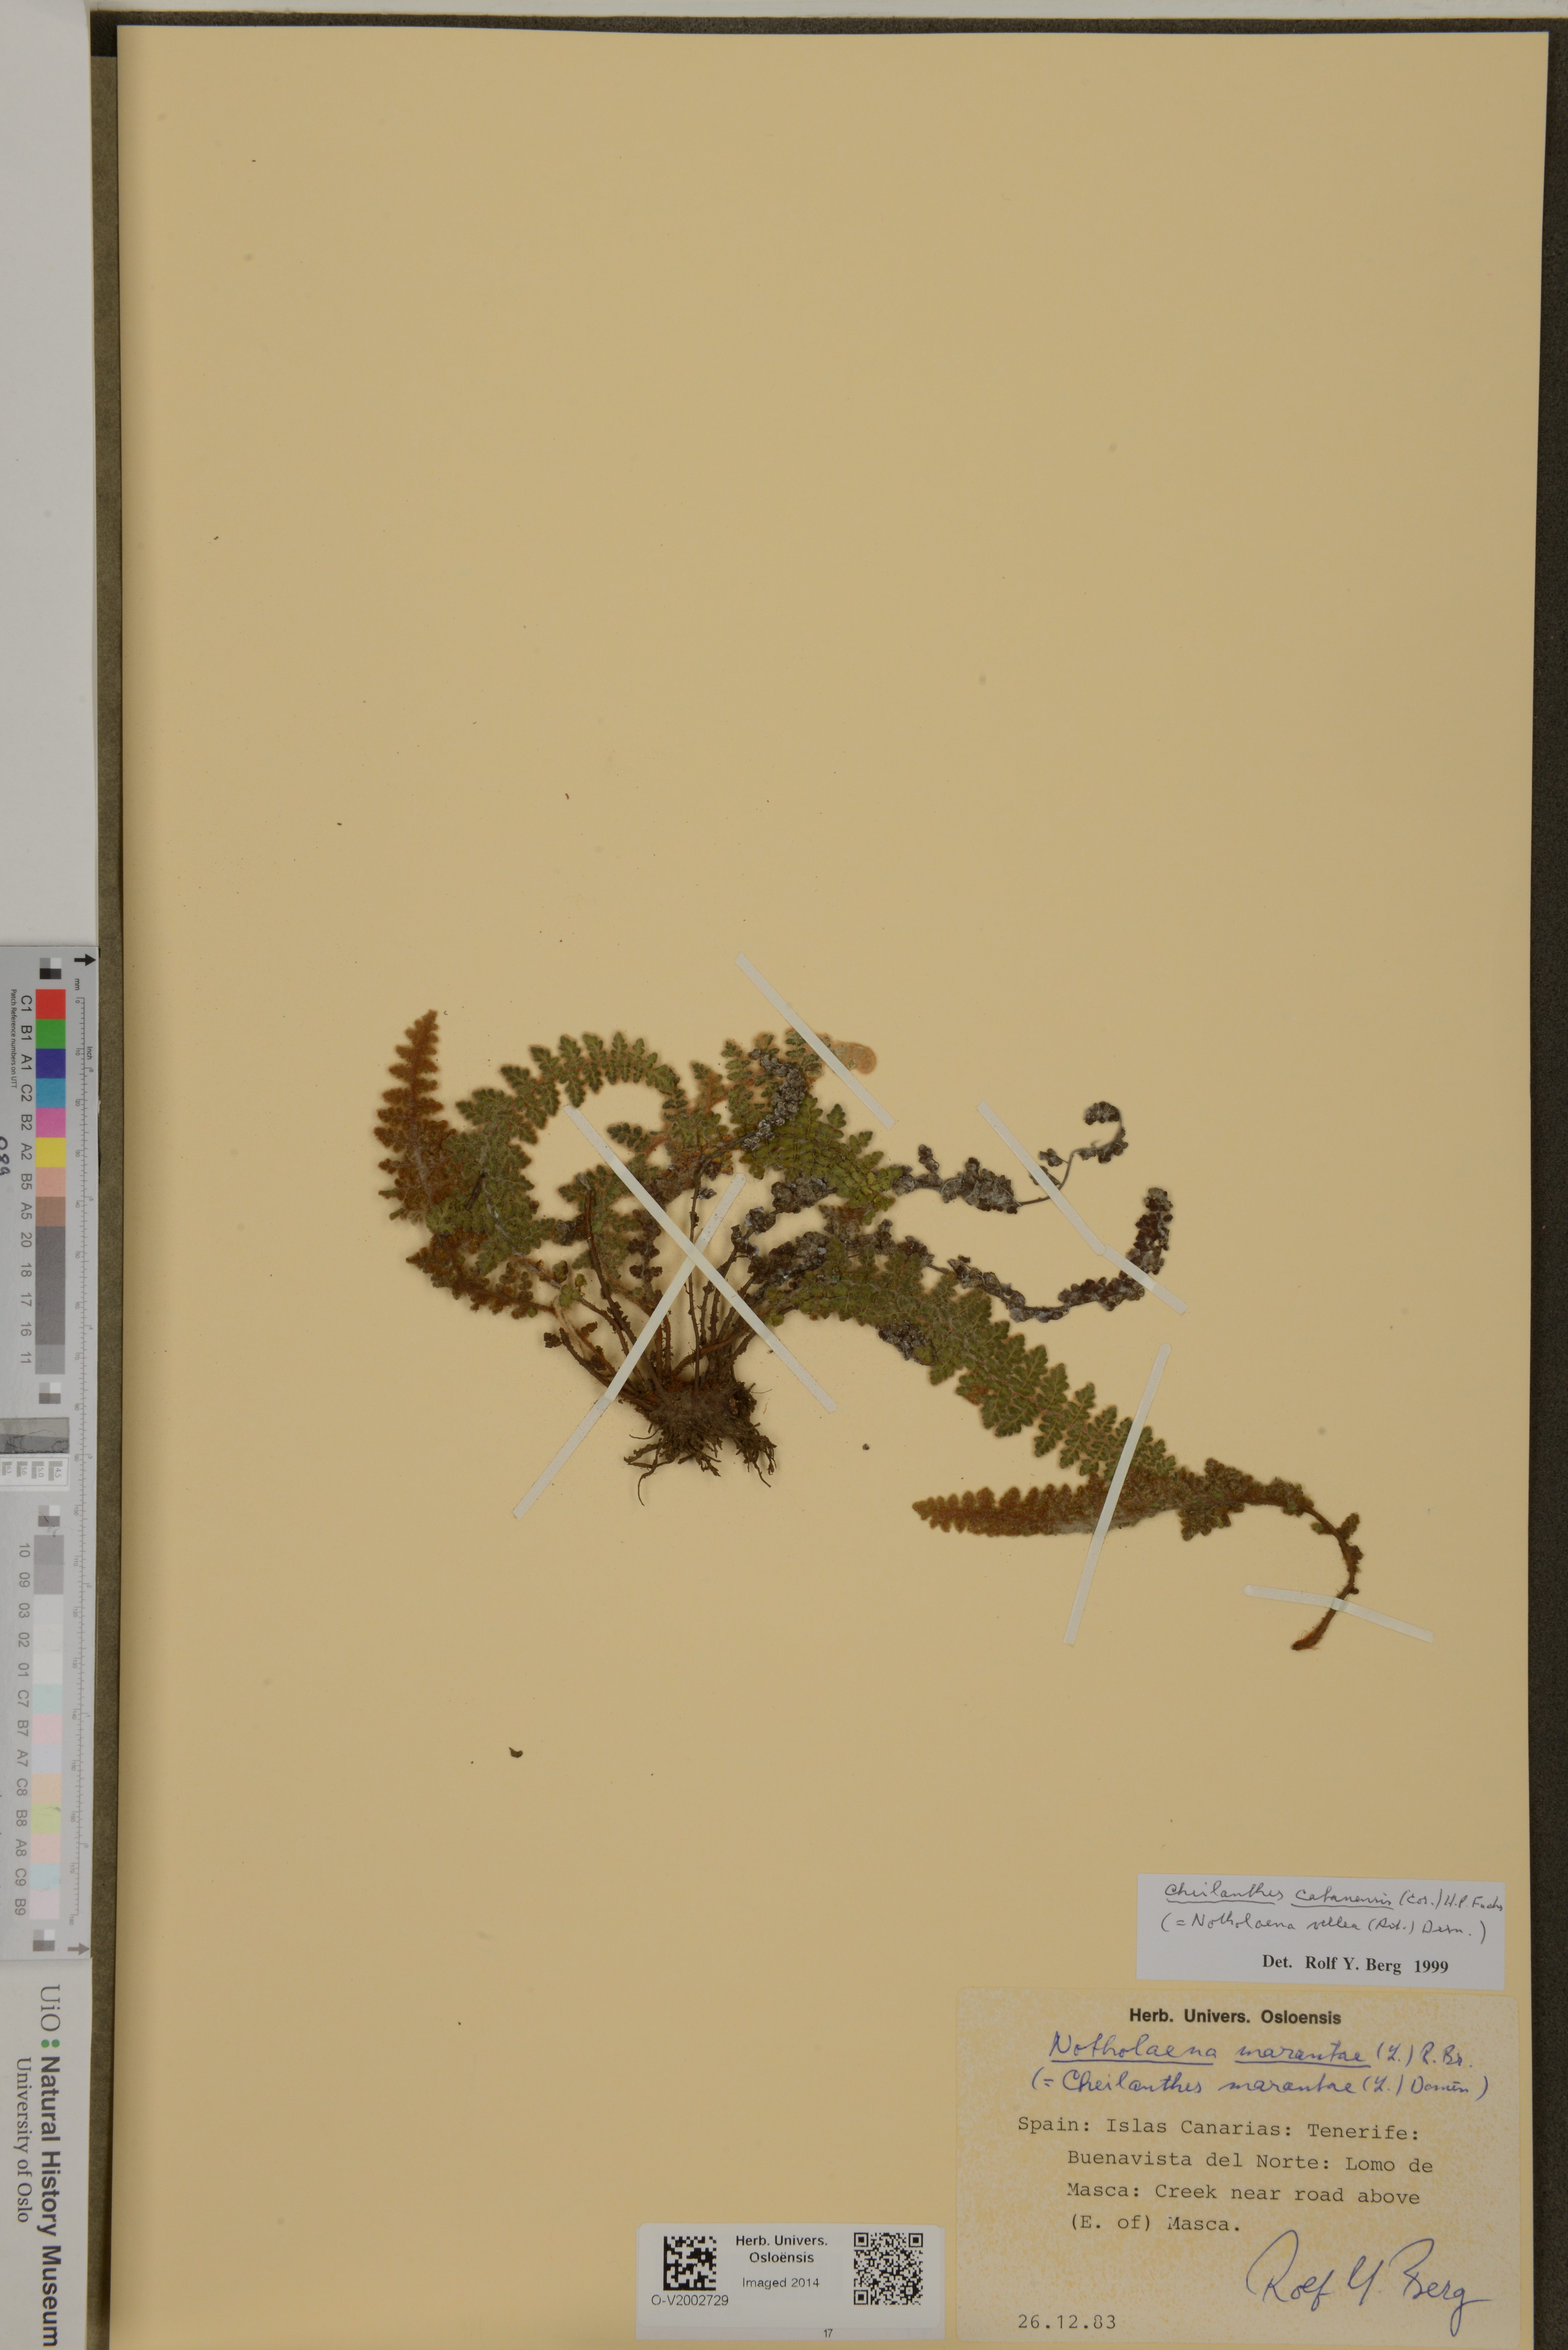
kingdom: Plantae
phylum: Tracheophyta
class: Polypodiopsida
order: Polypodiales
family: Pteridaceae
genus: Cosentinia
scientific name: Cosentinia vellea
